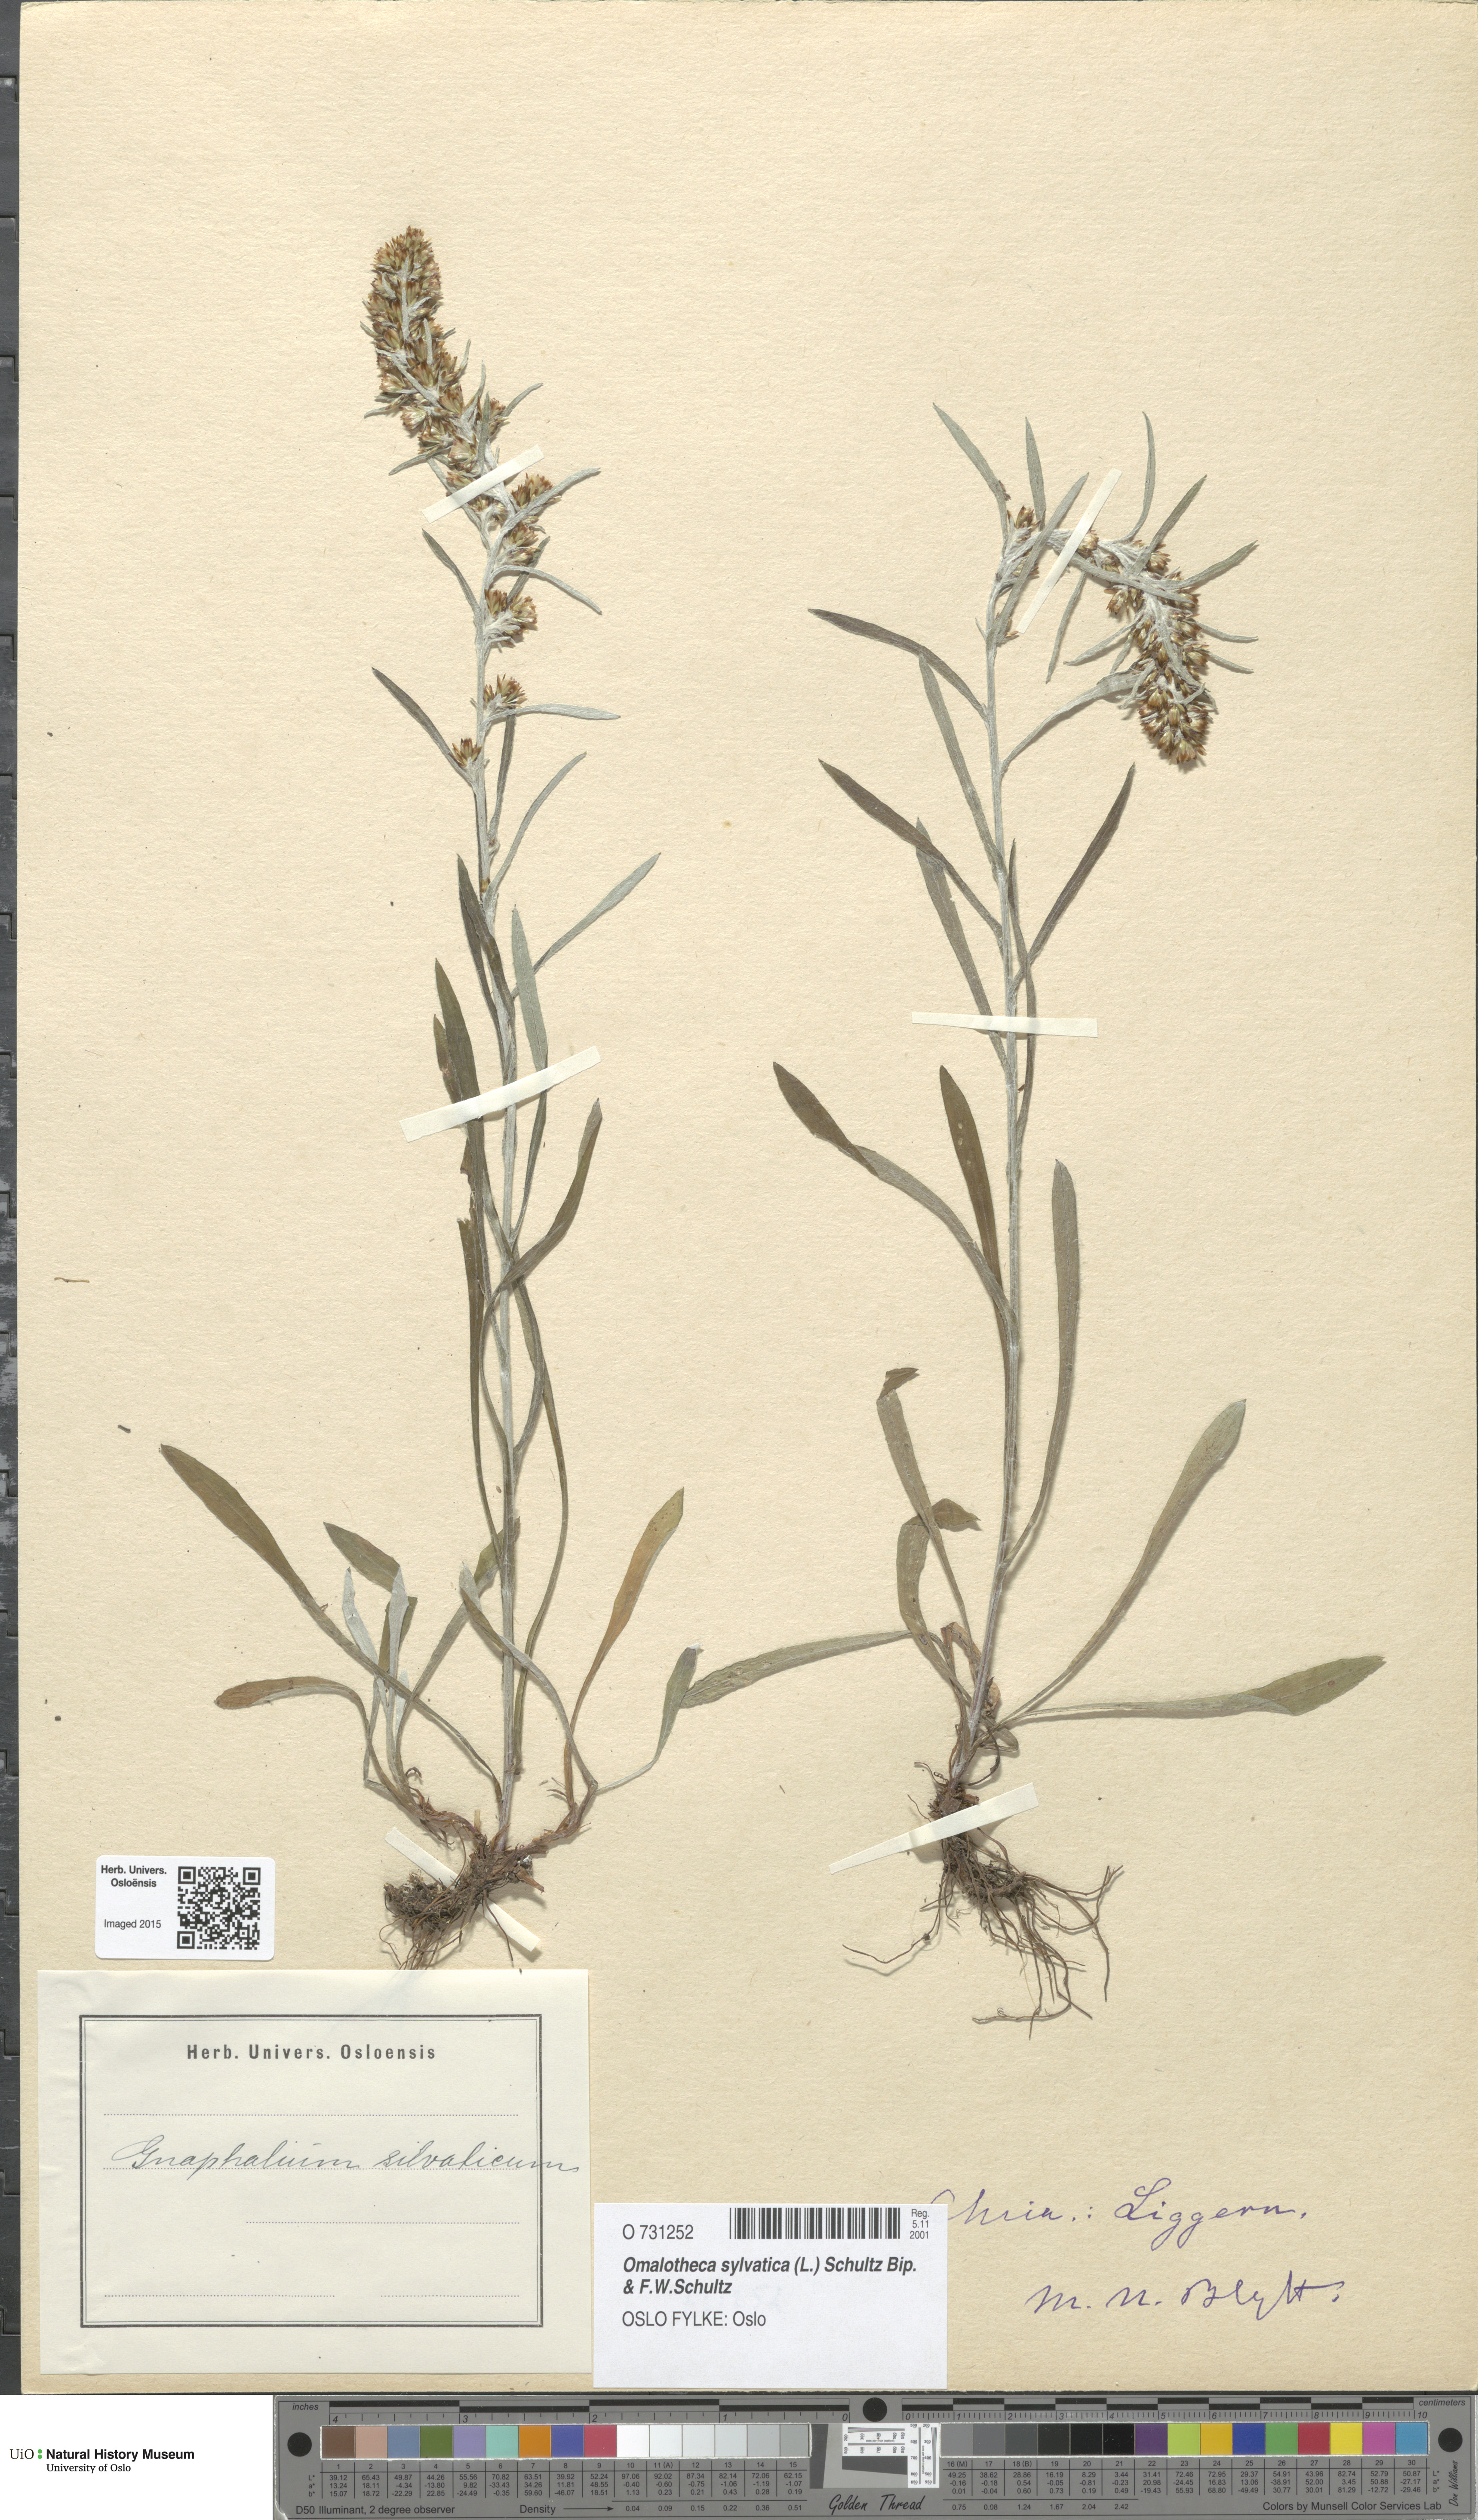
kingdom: Plantae
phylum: Tracheophyta
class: Magnoliopsida
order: Asterales
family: Asteraceae
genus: Omalotheca
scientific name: Omalotheca sylvatica
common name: Heath cudweed
